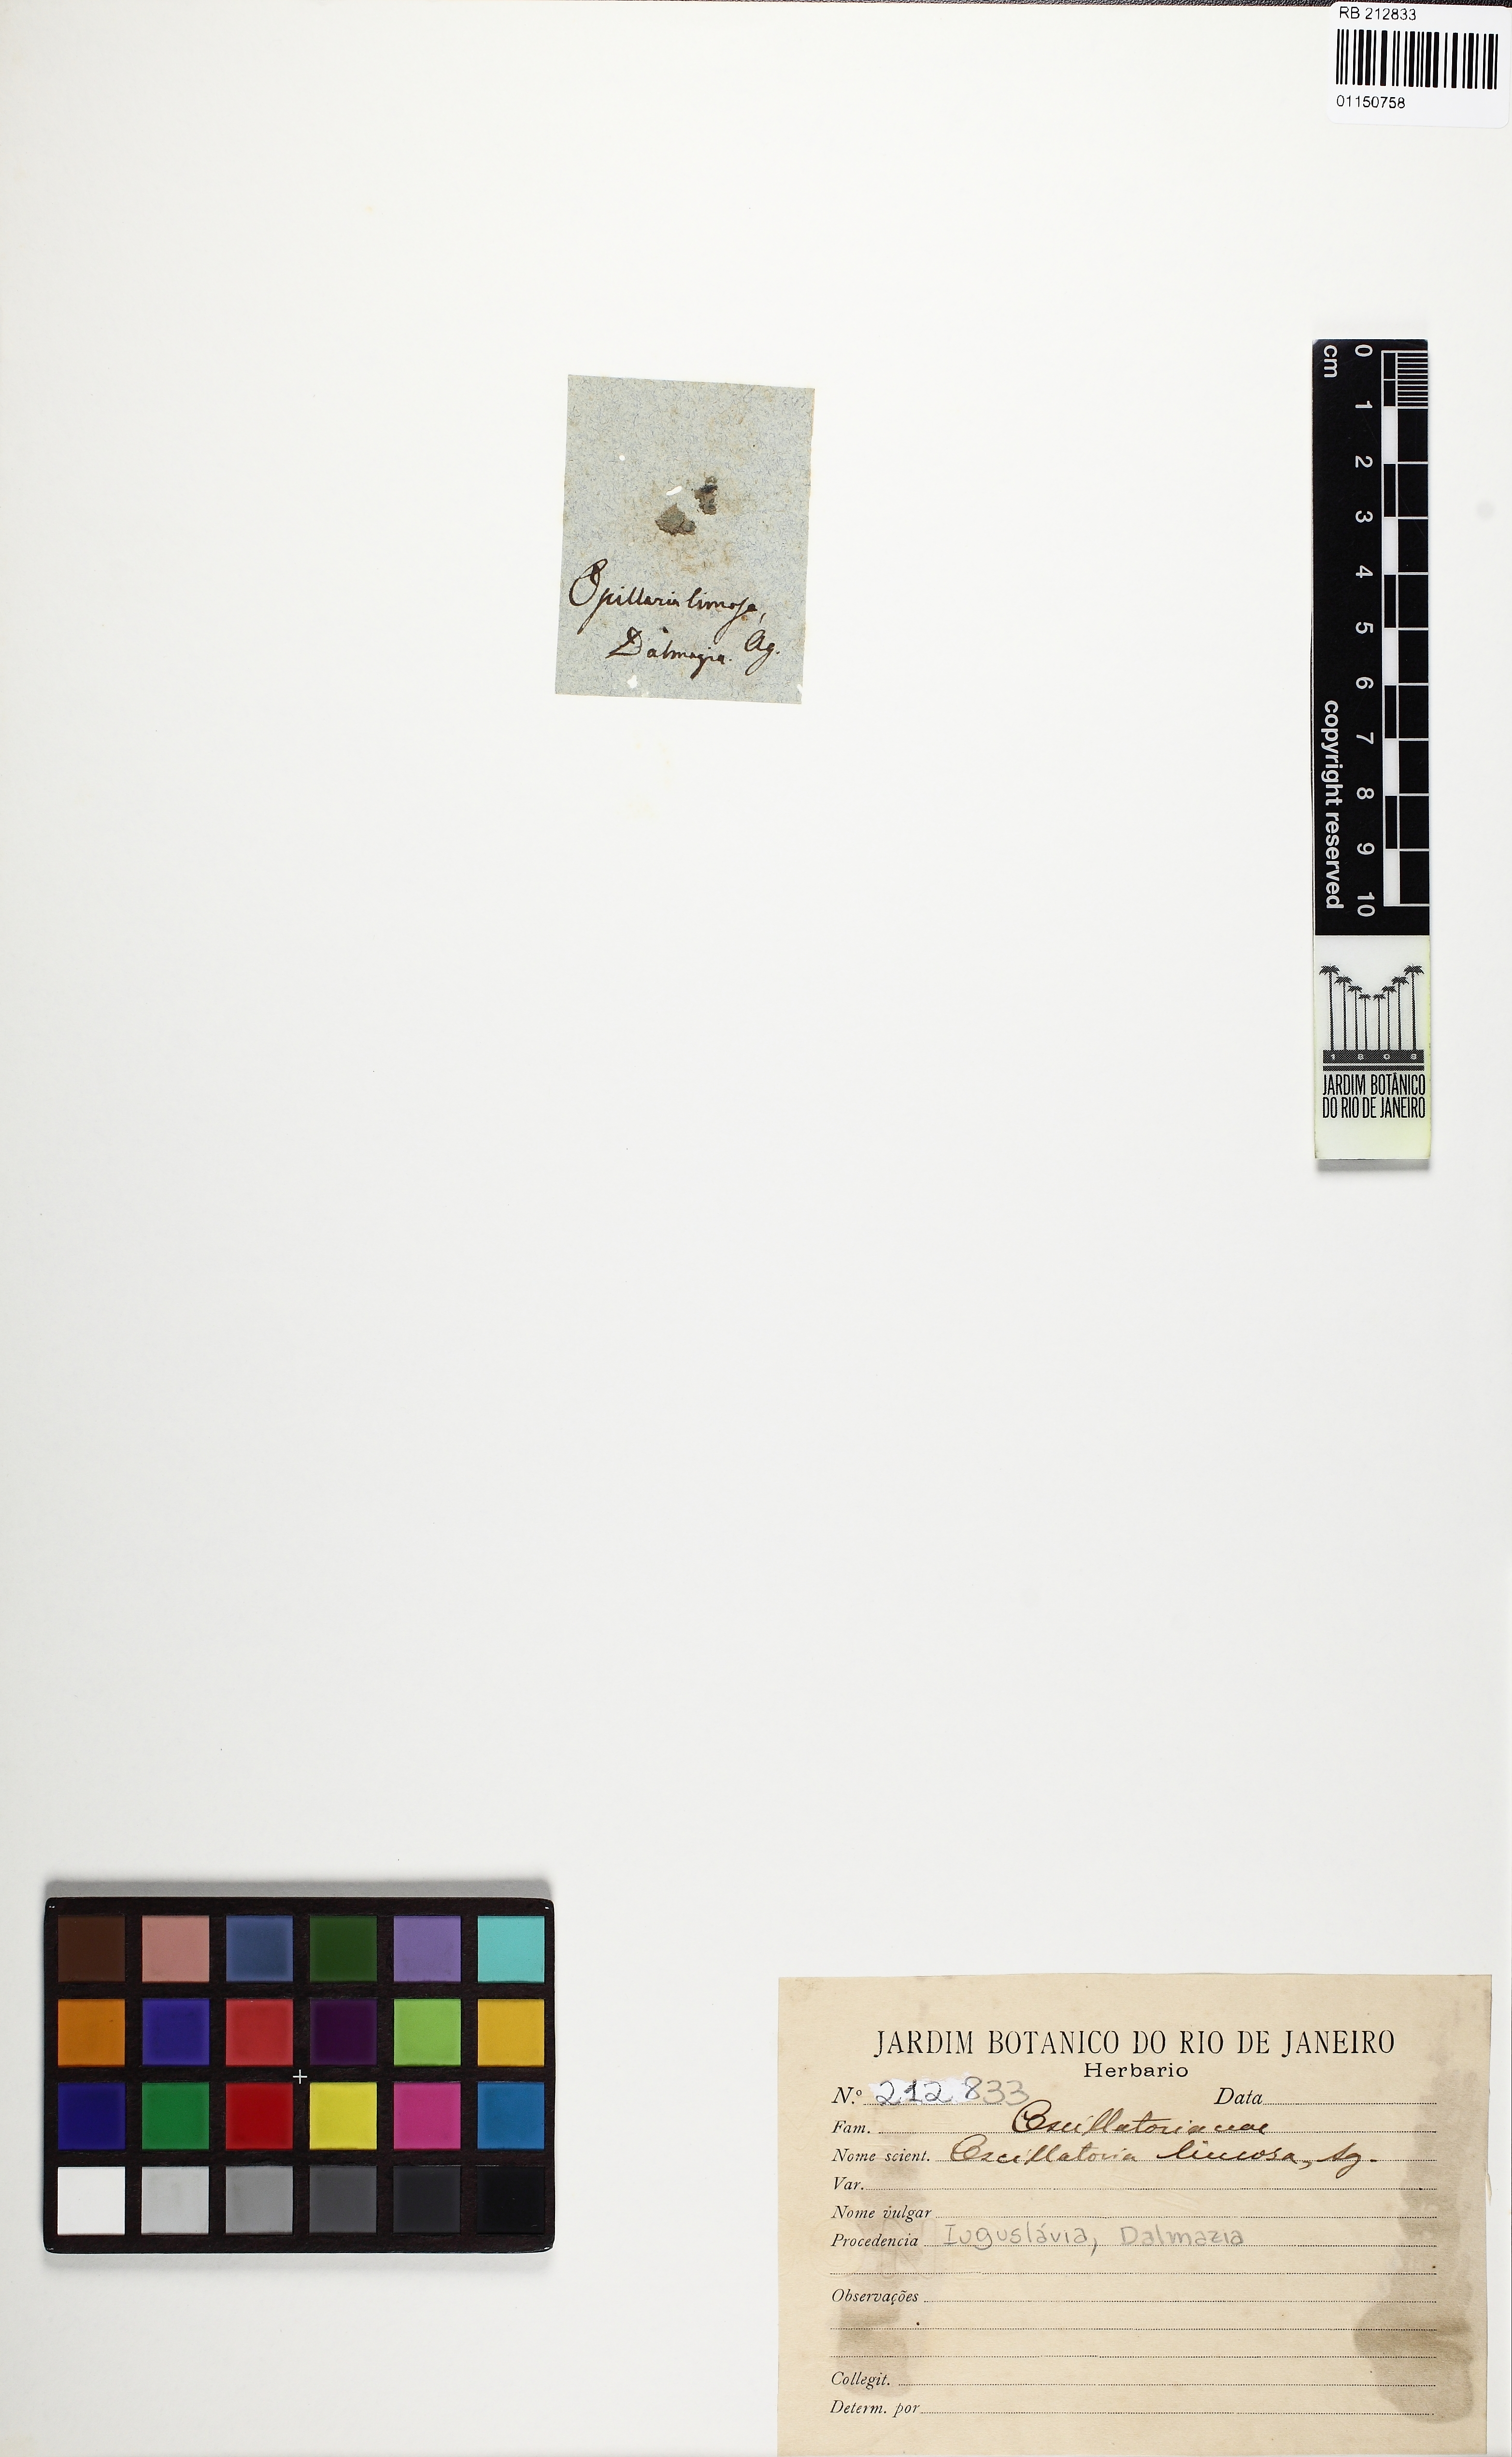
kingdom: Bacteria
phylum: Cyanobacteria
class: Cyanobacteriia
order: Cyanobacteriales
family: Oscillatoriaceae
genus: Oscillatoria
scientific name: Oscillatoria limosa
